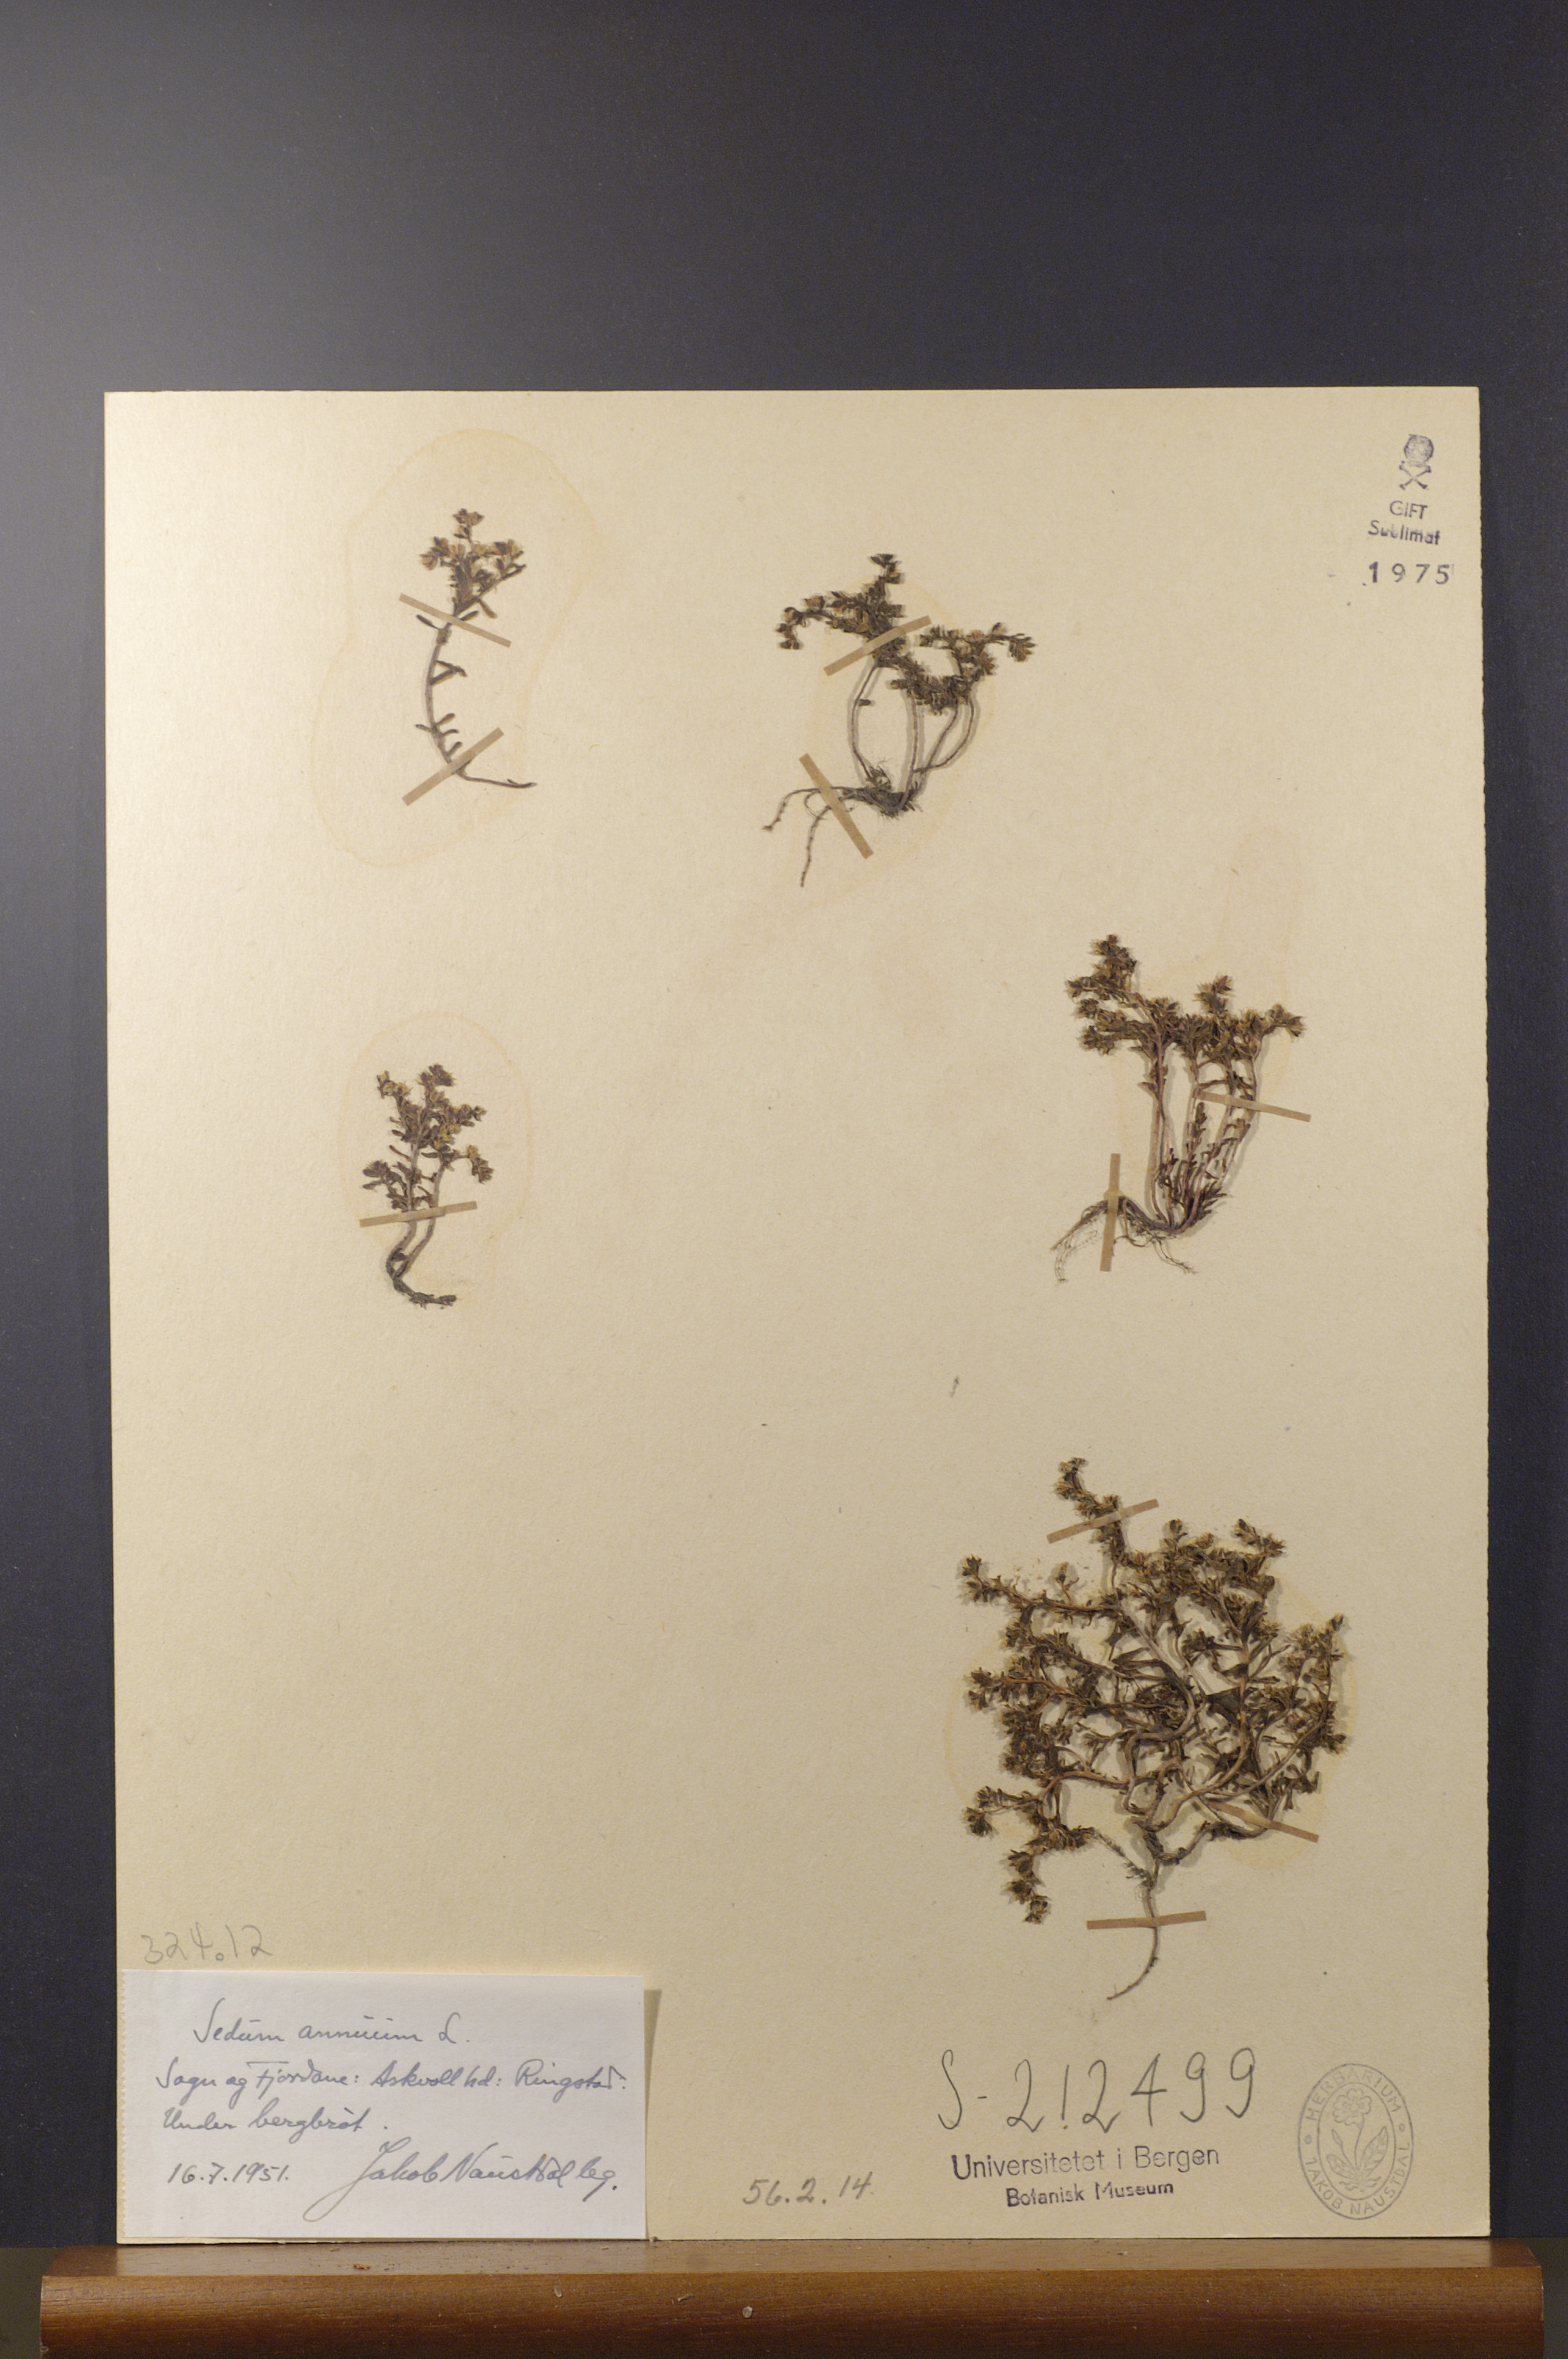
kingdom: Plantae
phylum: Tracheophyta
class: Magnoliopsida
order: Saxifragales
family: Crassulaceae
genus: Sedum
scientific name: Sedum annuum
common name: Annual stonecrop
